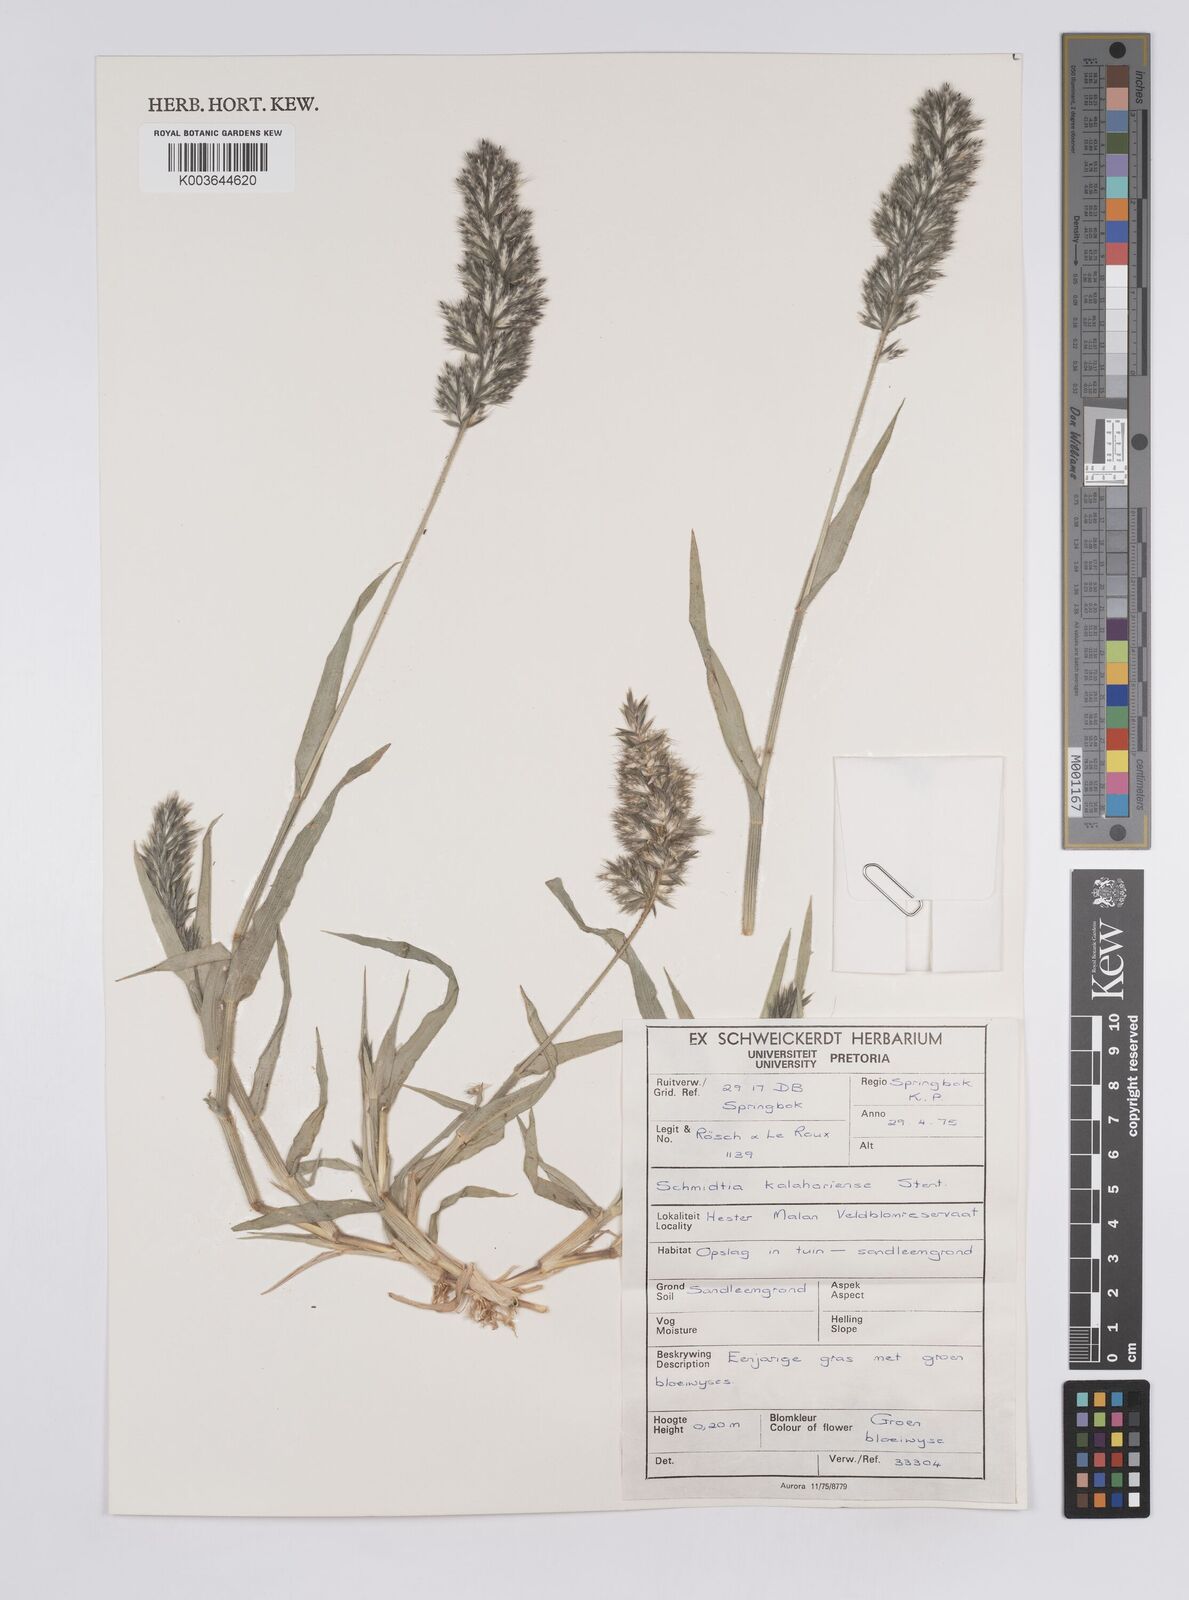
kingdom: Plantae
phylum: Tracheophyta
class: Liliopsida
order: Poales
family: Poaceae
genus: Schmidtia
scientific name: Schmidtia kalahariensis
